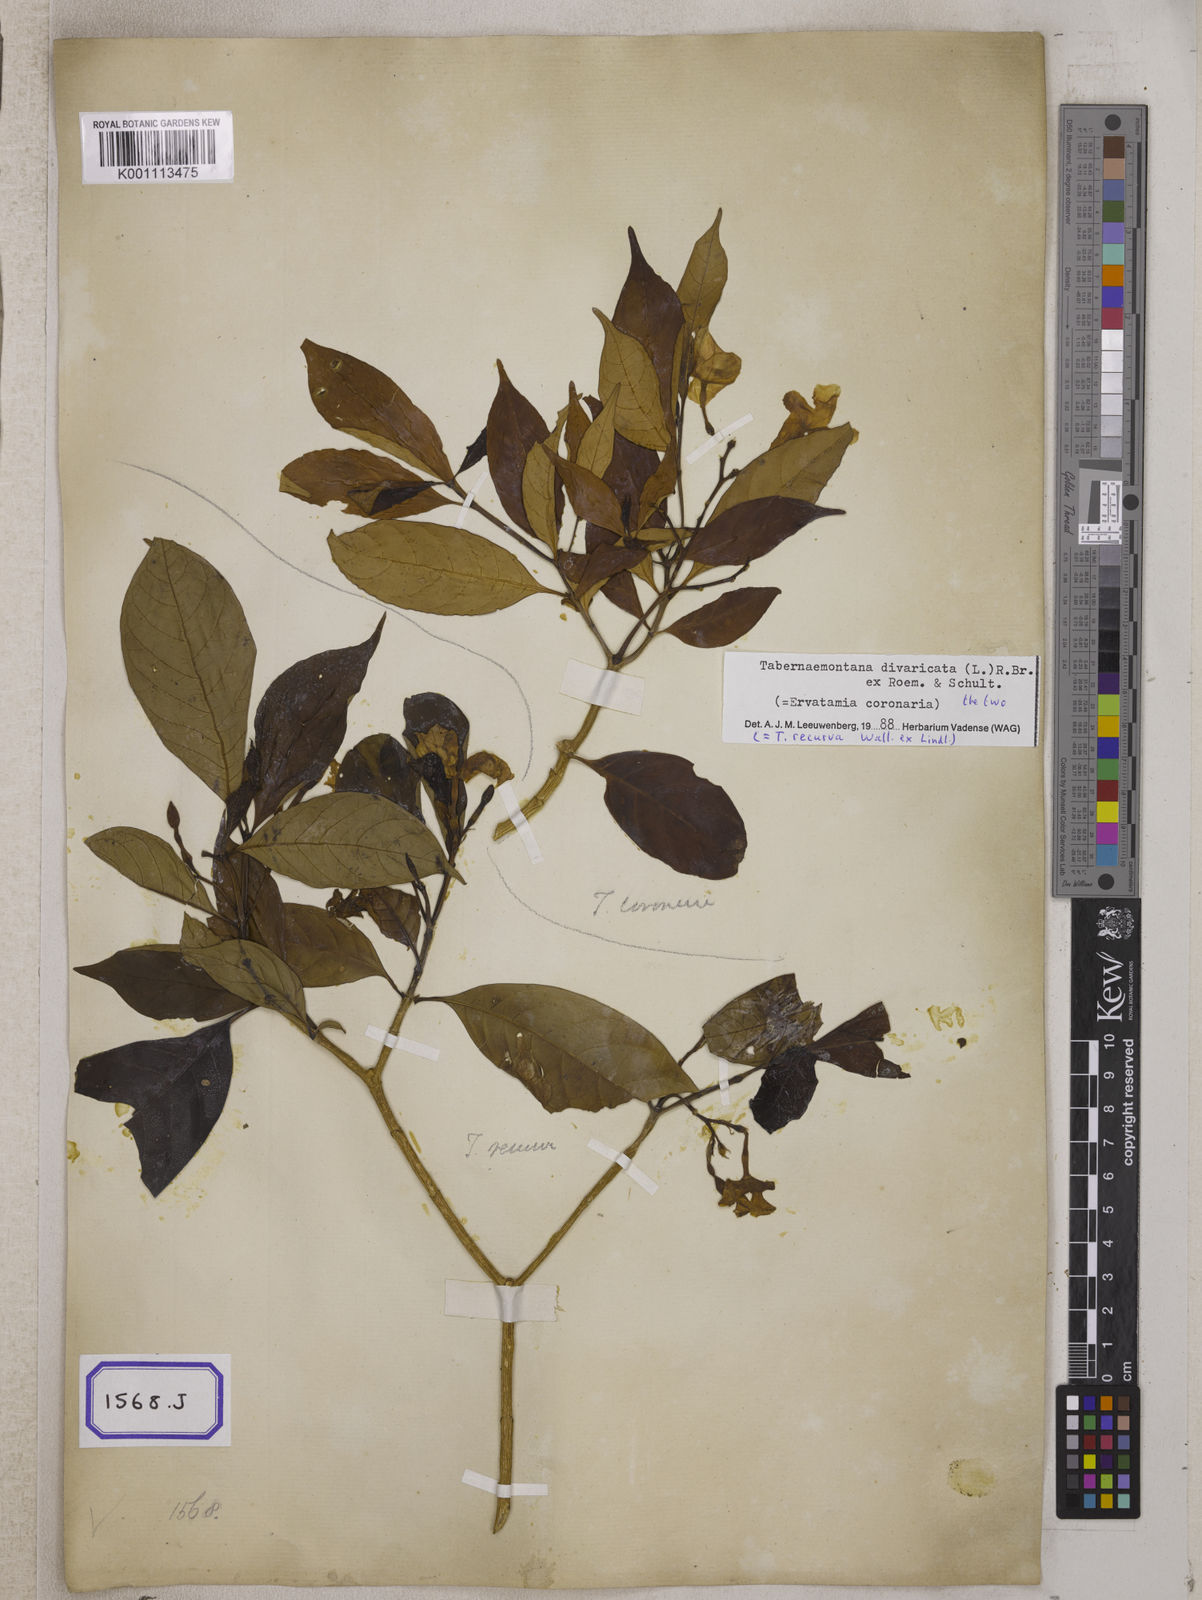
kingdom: Plantae
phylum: Tracheophyta
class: Magnoliopsida
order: Gentianales
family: Apocynaceae
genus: Tabernaemontana
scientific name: Tabernaemontana divaricata
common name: Pinwheelflower
